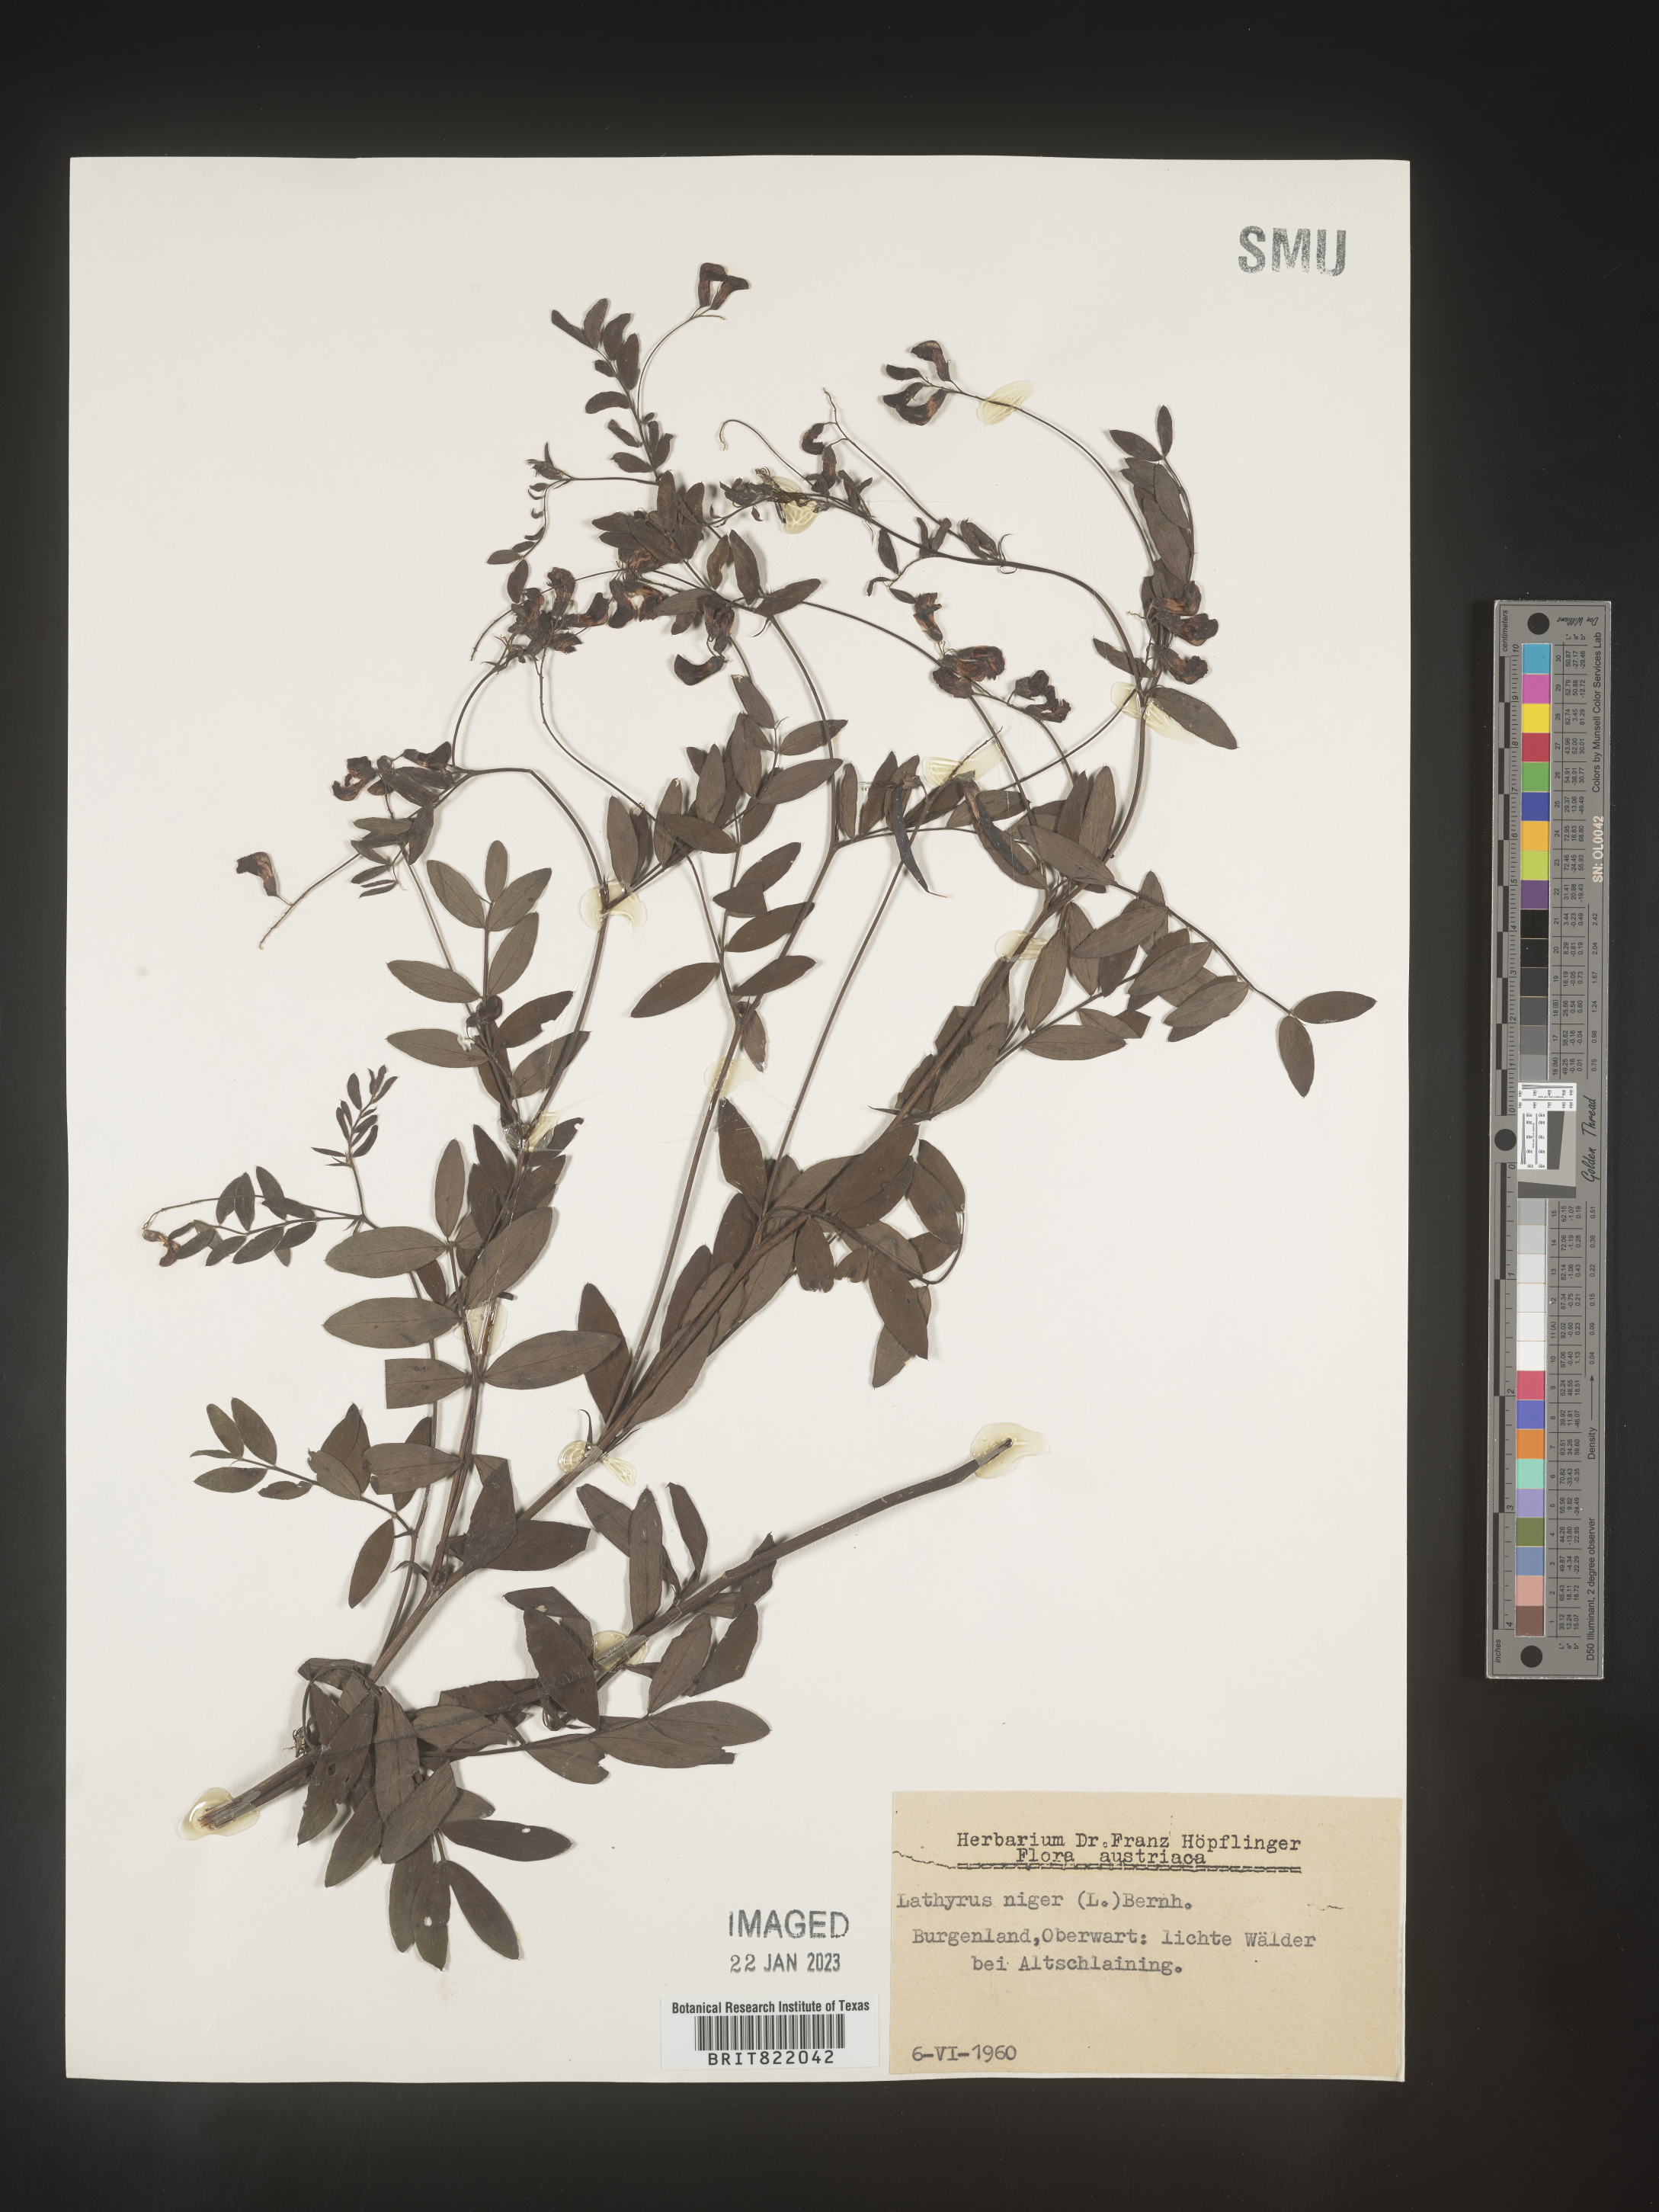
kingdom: Plantae
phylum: Tracheophyta
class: Magnoliopsida
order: Fabales
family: Fabaceae
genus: Lathyrus
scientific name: Lathyrus
